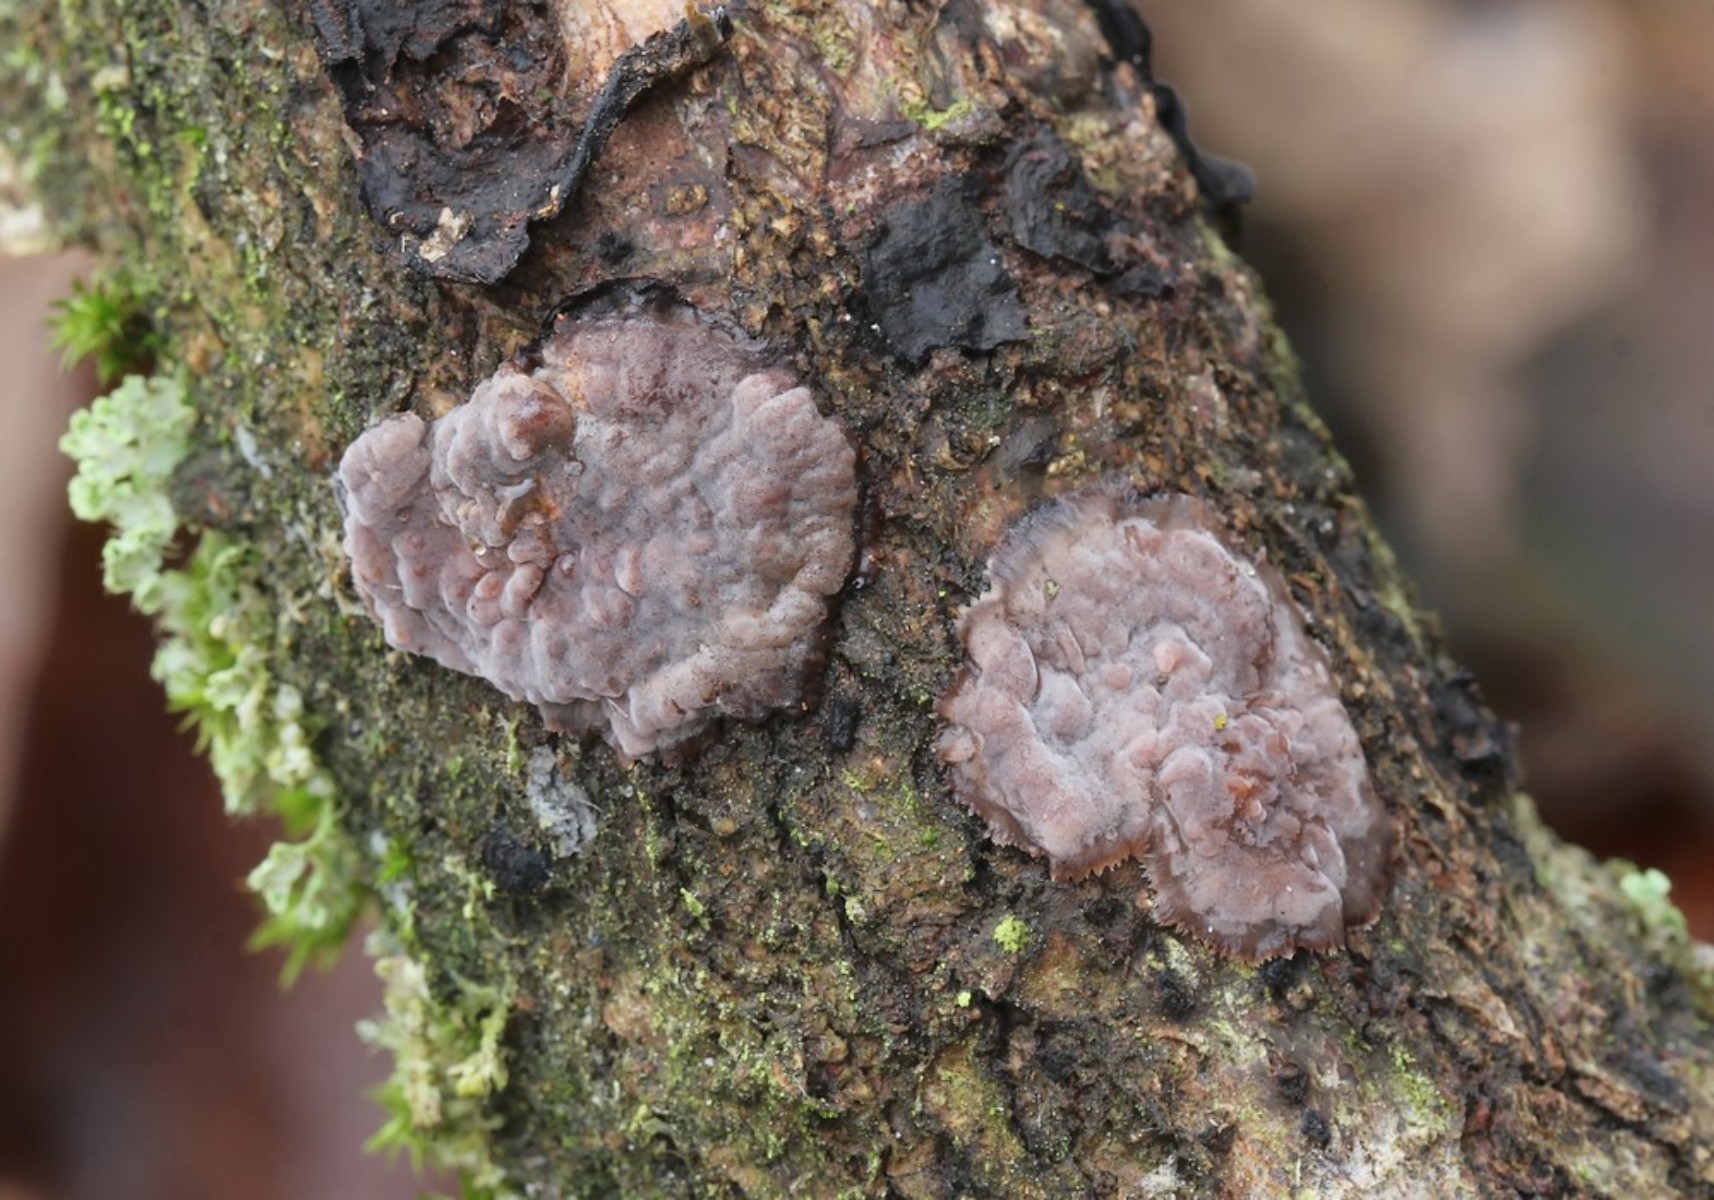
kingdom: Fungi
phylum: Basidiomycota
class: Agaricomycetes
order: Russulales
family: Peniophoraceae
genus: Peniophora
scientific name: Peniophora quercina
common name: ege-voksskind
